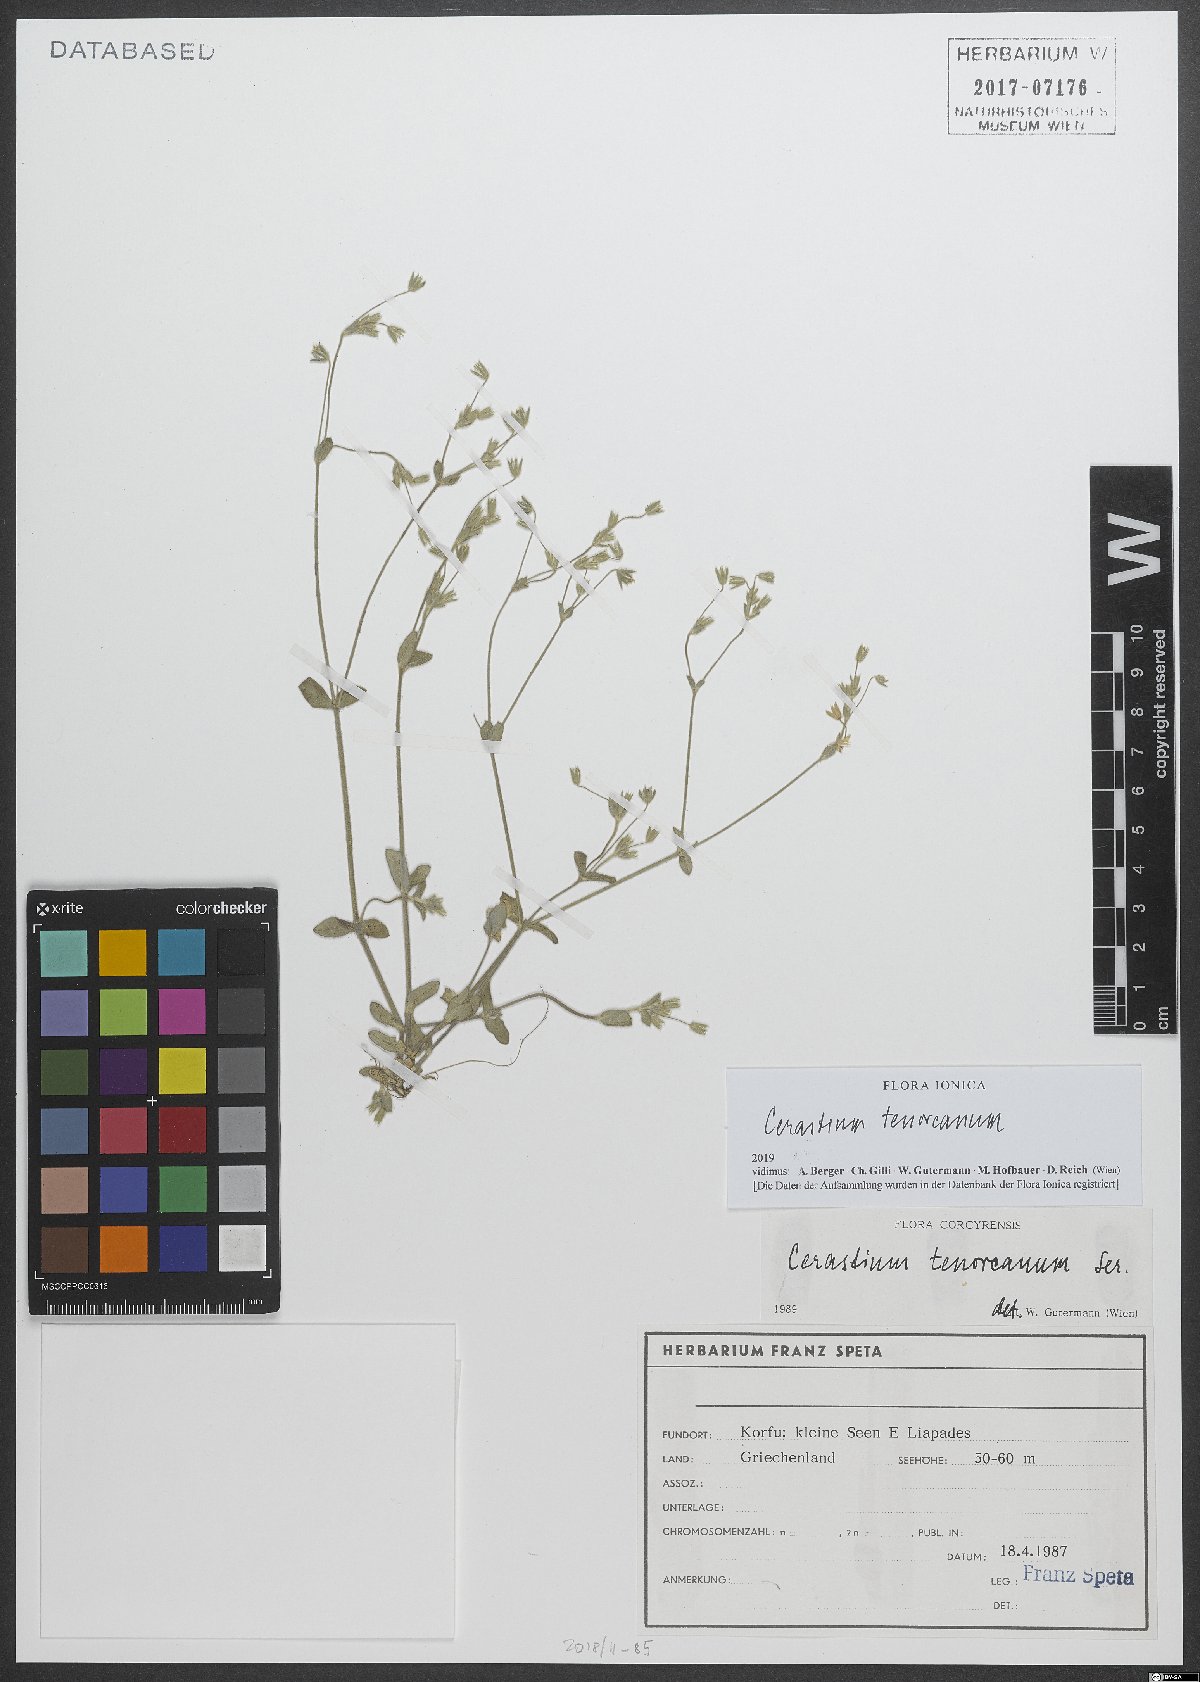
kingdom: Plantae
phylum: Tracheophyta
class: Magnoliopsida
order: Caryophyllales
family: Caryophyllaceae
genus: Cerastium
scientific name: Cerastium tenoreanum
